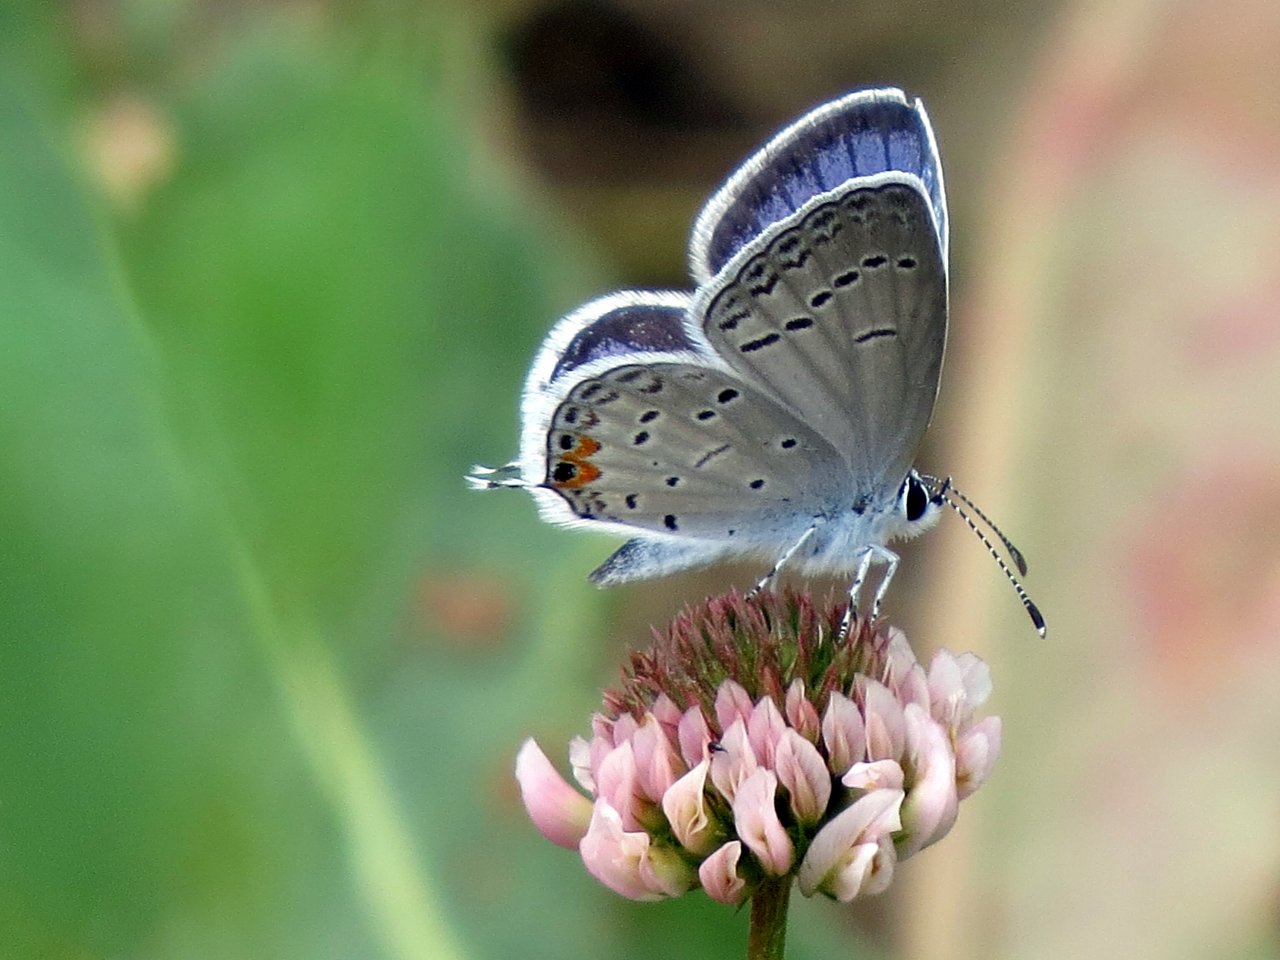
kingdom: Animalia
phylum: Arthropoda
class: Insecta
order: Lepidoptera
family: Lycaenidae
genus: Elkalyce
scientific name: Elkalyce comyntas
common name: Eastern Tailed-Blue
